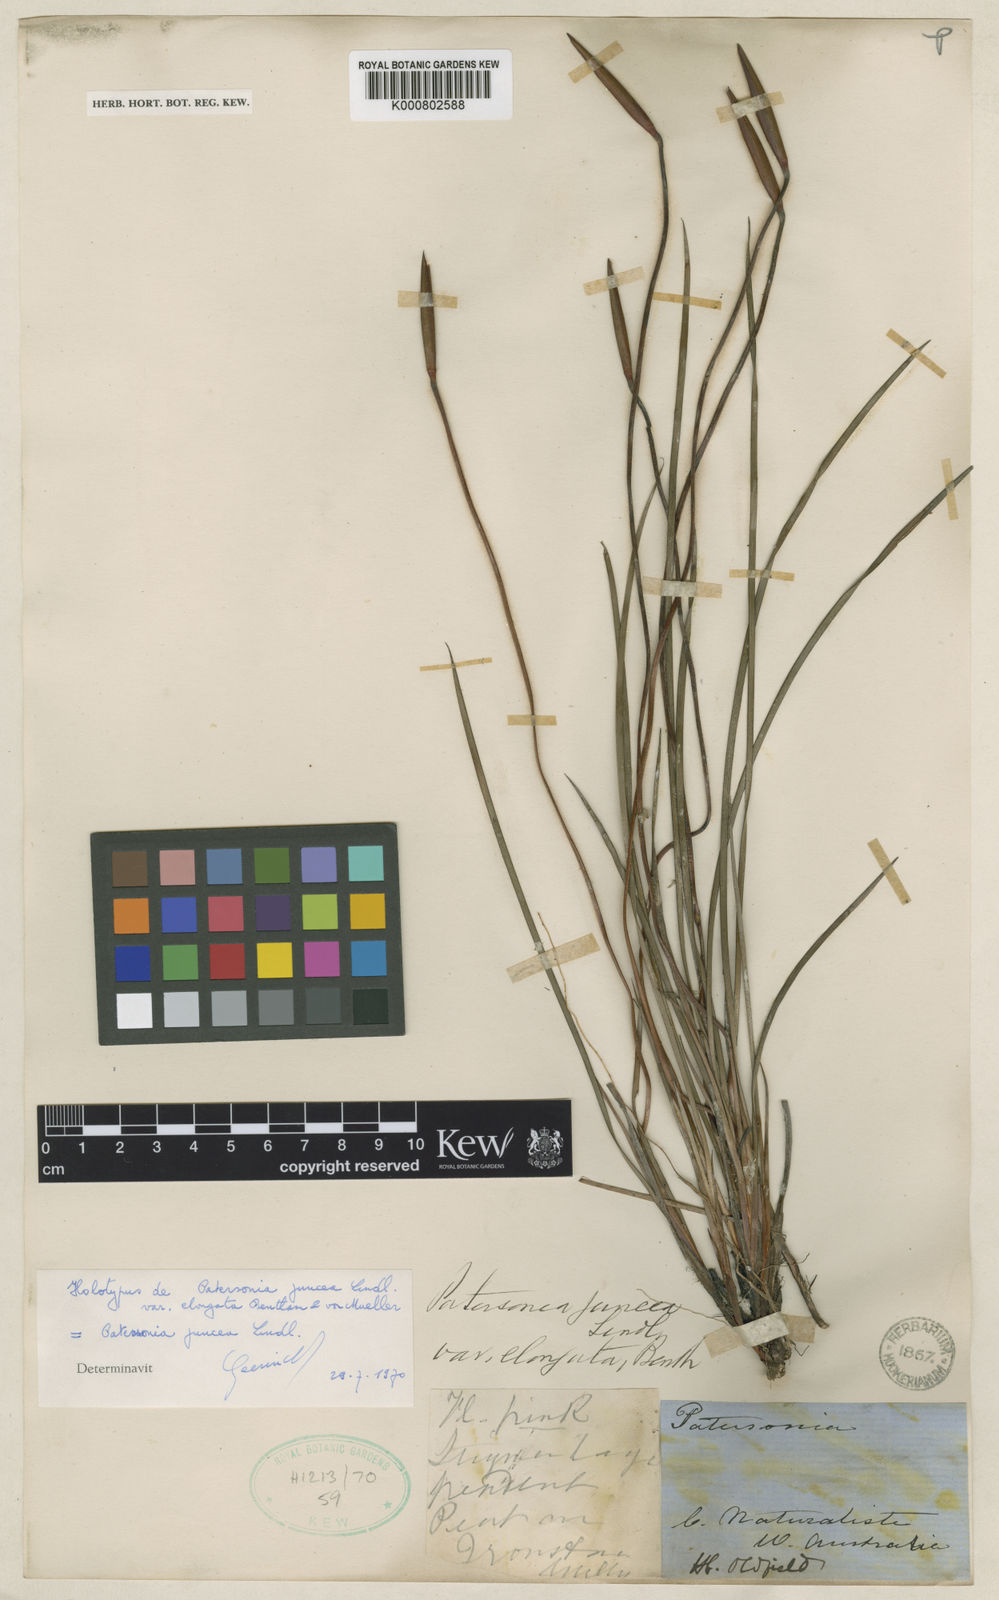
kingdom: Plantae
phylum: Tracheophyta
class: Liliopsida
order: Asparagales
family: Iridaceae
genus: Patersonia
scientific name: Patersonia occidentalis
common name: Long purple-flag
